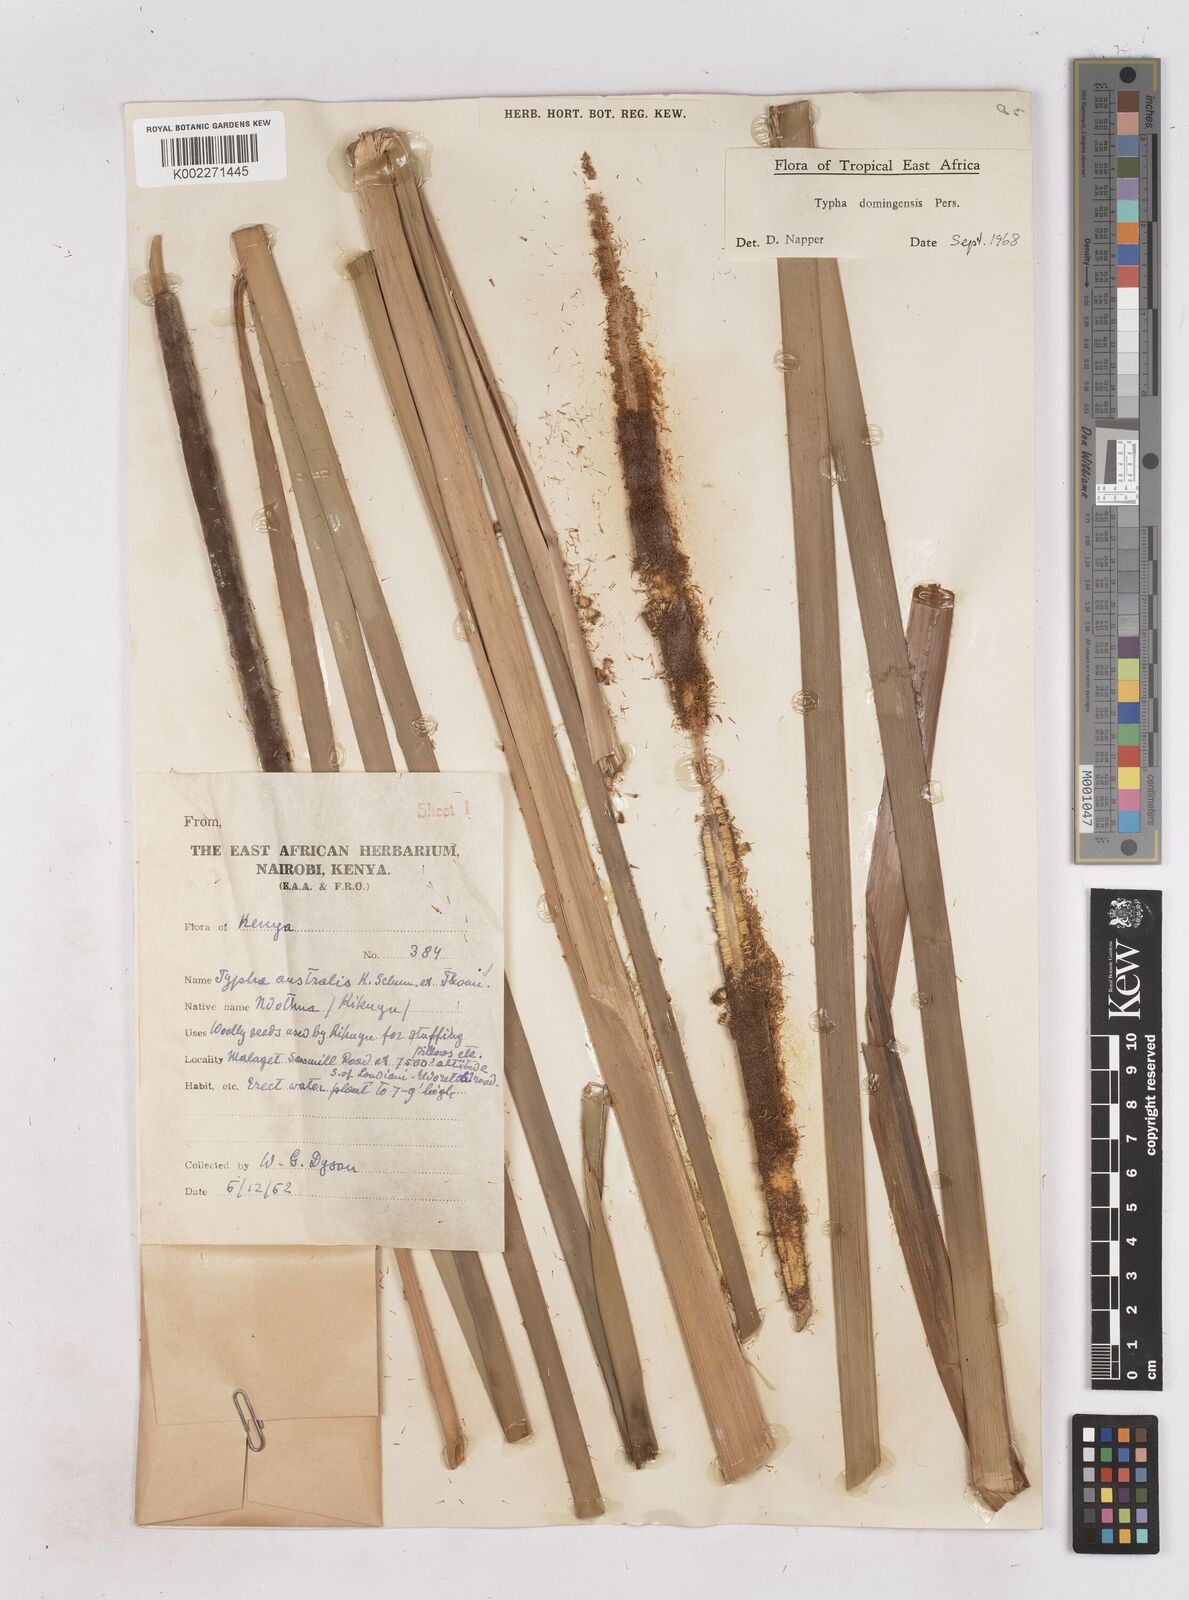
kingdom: Plantae
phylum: Tracheophyta
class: Liliopsida
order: Poales
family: Typhaceae
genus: Typha
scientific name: Typha domingensis
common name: Southern cattail
